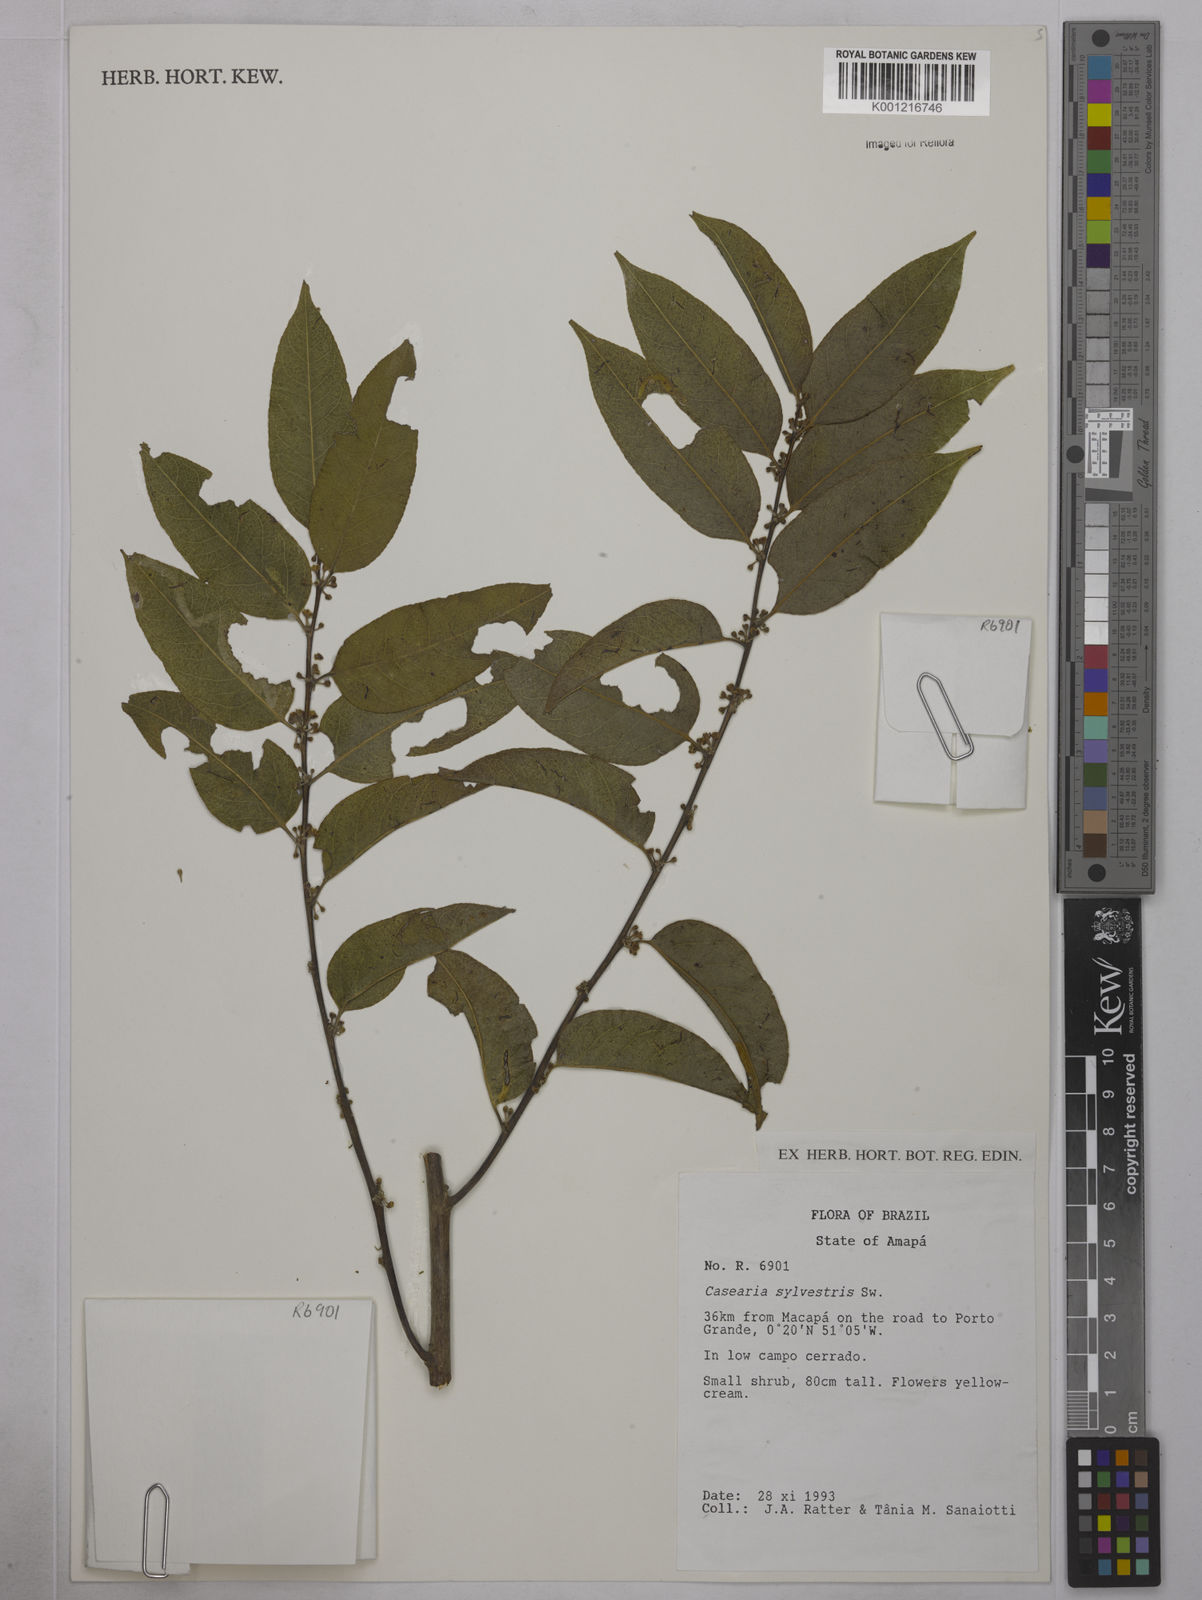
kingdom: Plantae
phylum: Tracheophyta
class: Magnoliopsida
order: Malpighiales
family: Salicaceae
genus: Casearia
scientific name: Casearia sylvestris
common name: Wild sage
